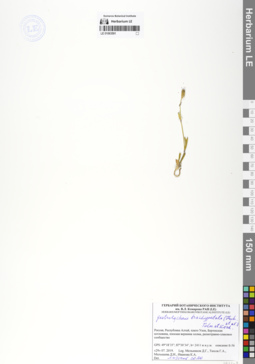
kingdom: Plantae
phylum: Tracheophyta
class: Magnoliopsida
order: Caryophyllales
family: Caryophyllaceae
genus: Silene
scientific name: Silene songarica
